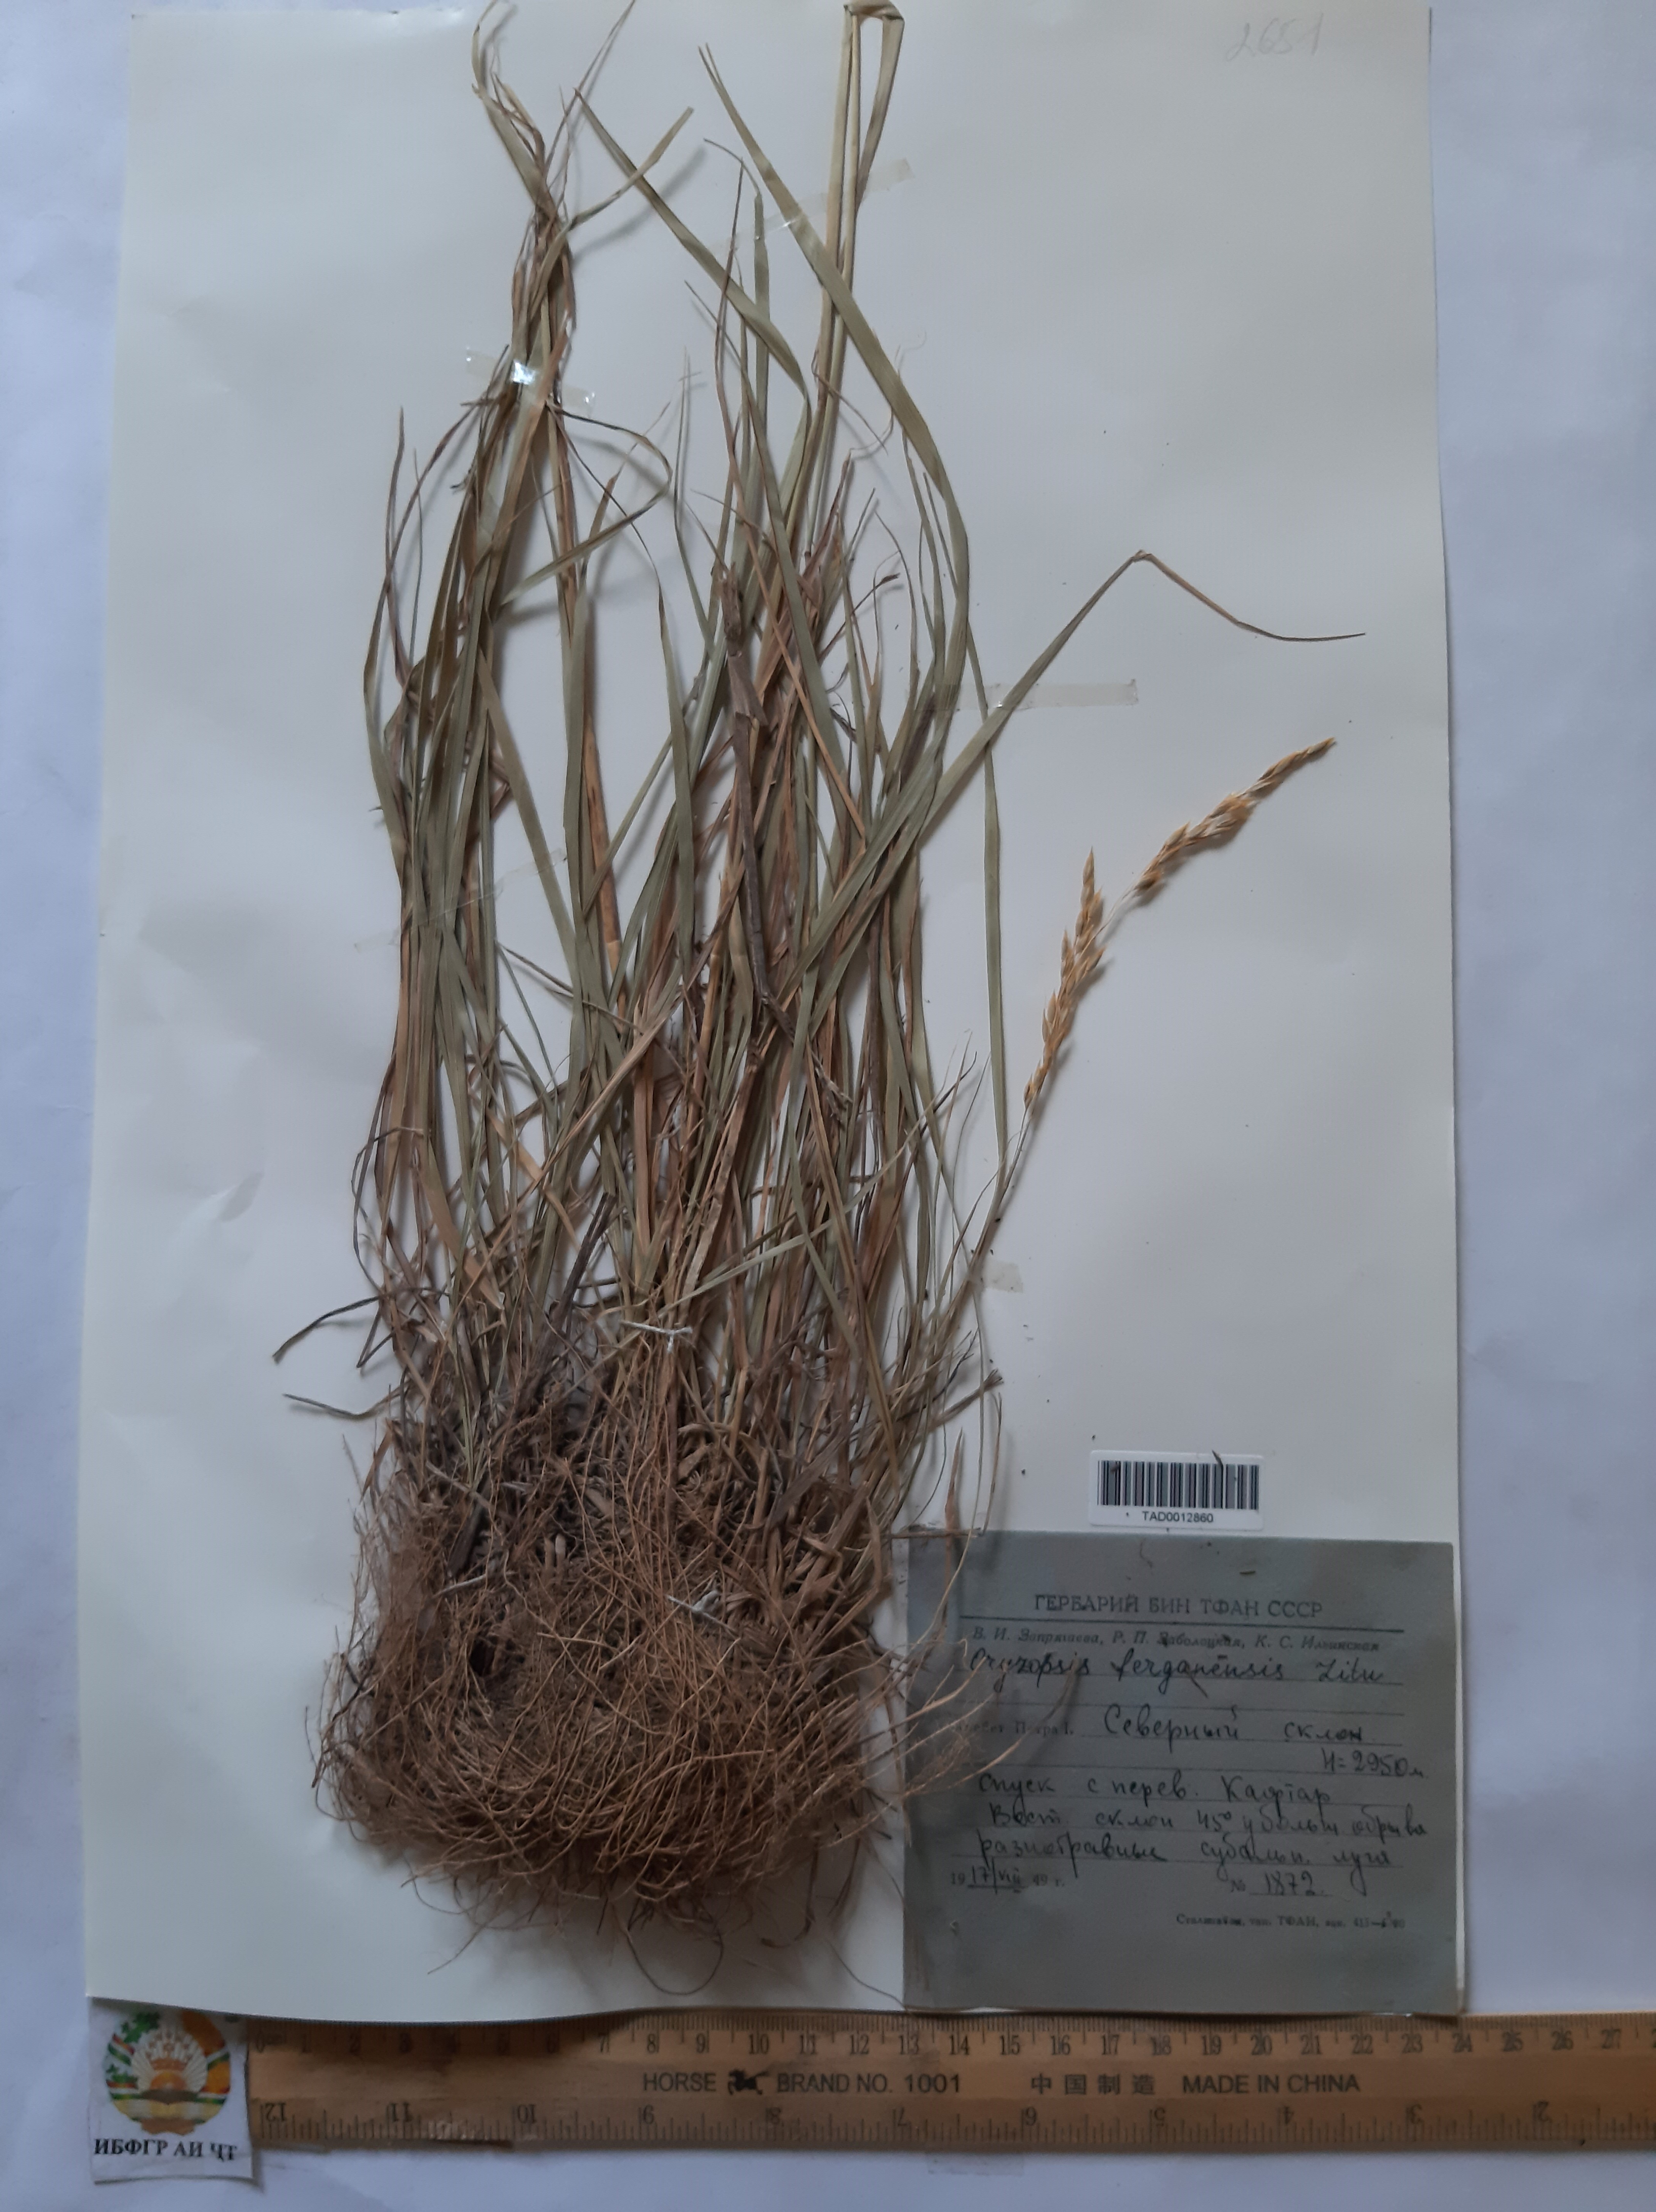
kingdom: Plantae
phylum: Tracheophyta
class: Liliopsida
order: Poales
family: Poaceae
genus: Piptatherum
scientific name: Piptatherum ferganense
